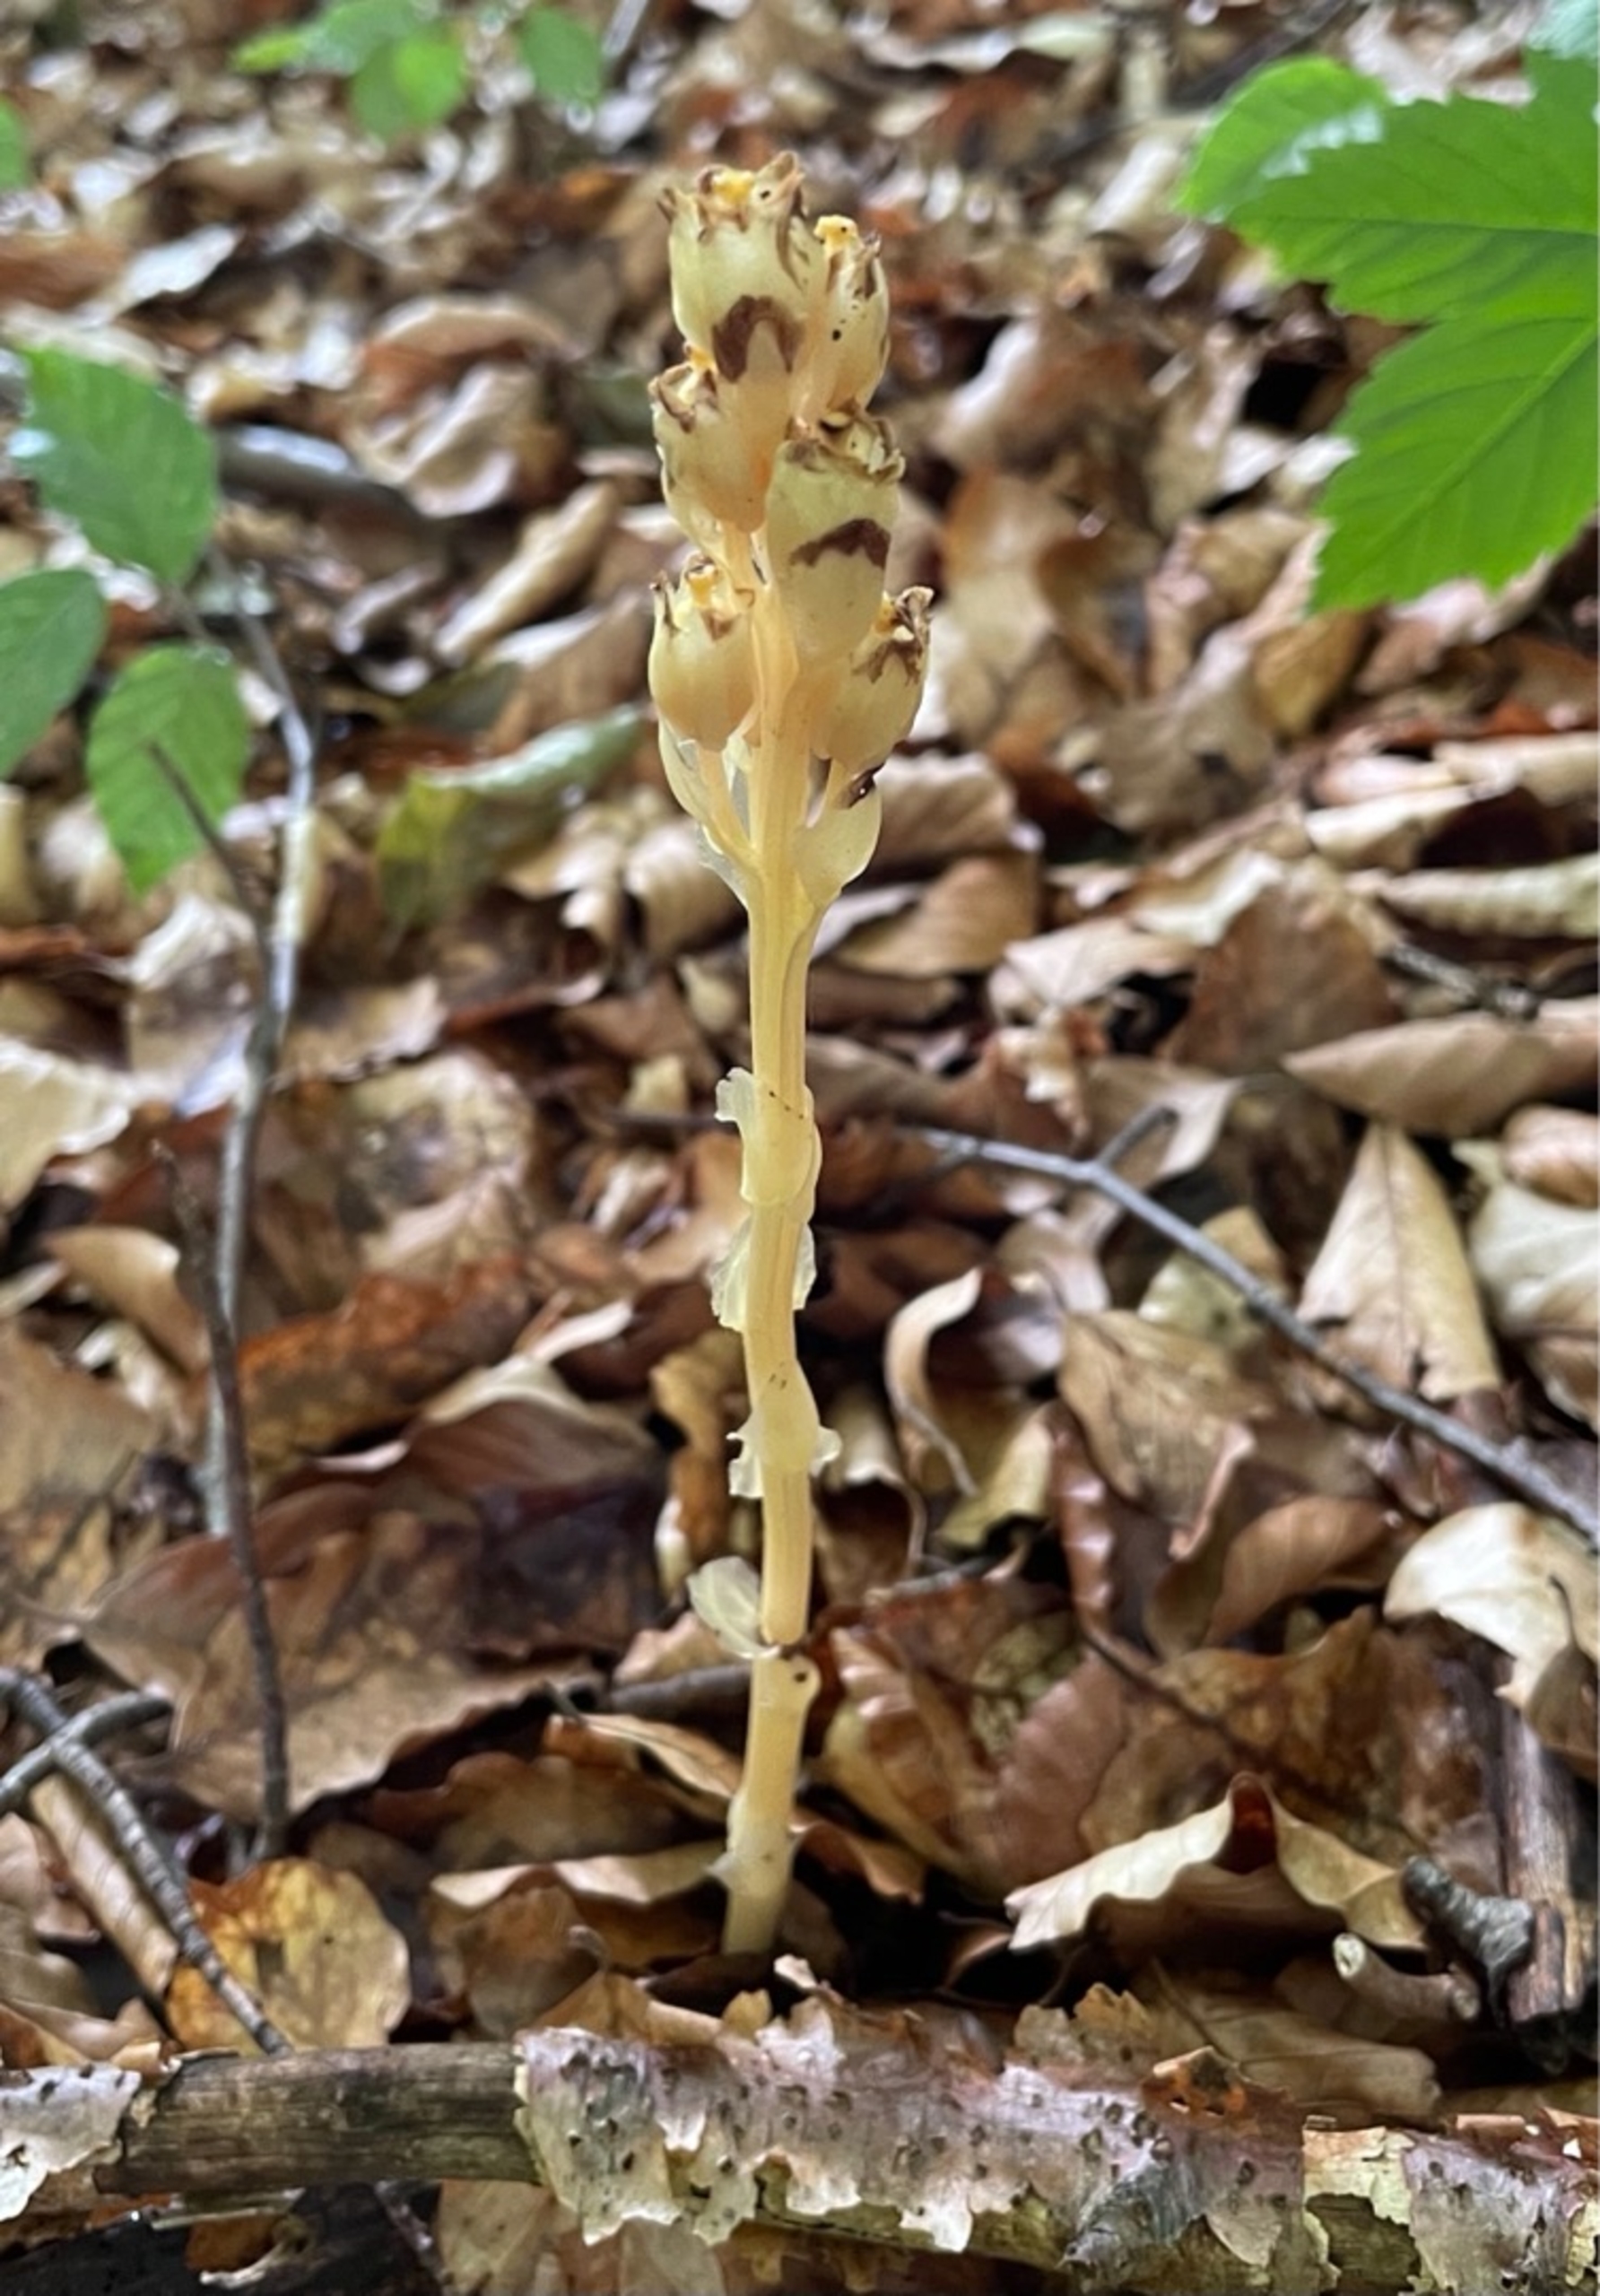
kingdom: Plantae
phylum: Tracheophyta
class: Magnoliopsida
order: Ericales
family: Ericaceae
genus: Hypopitys
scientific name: Hypopitys monotropa
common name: Snylterod
